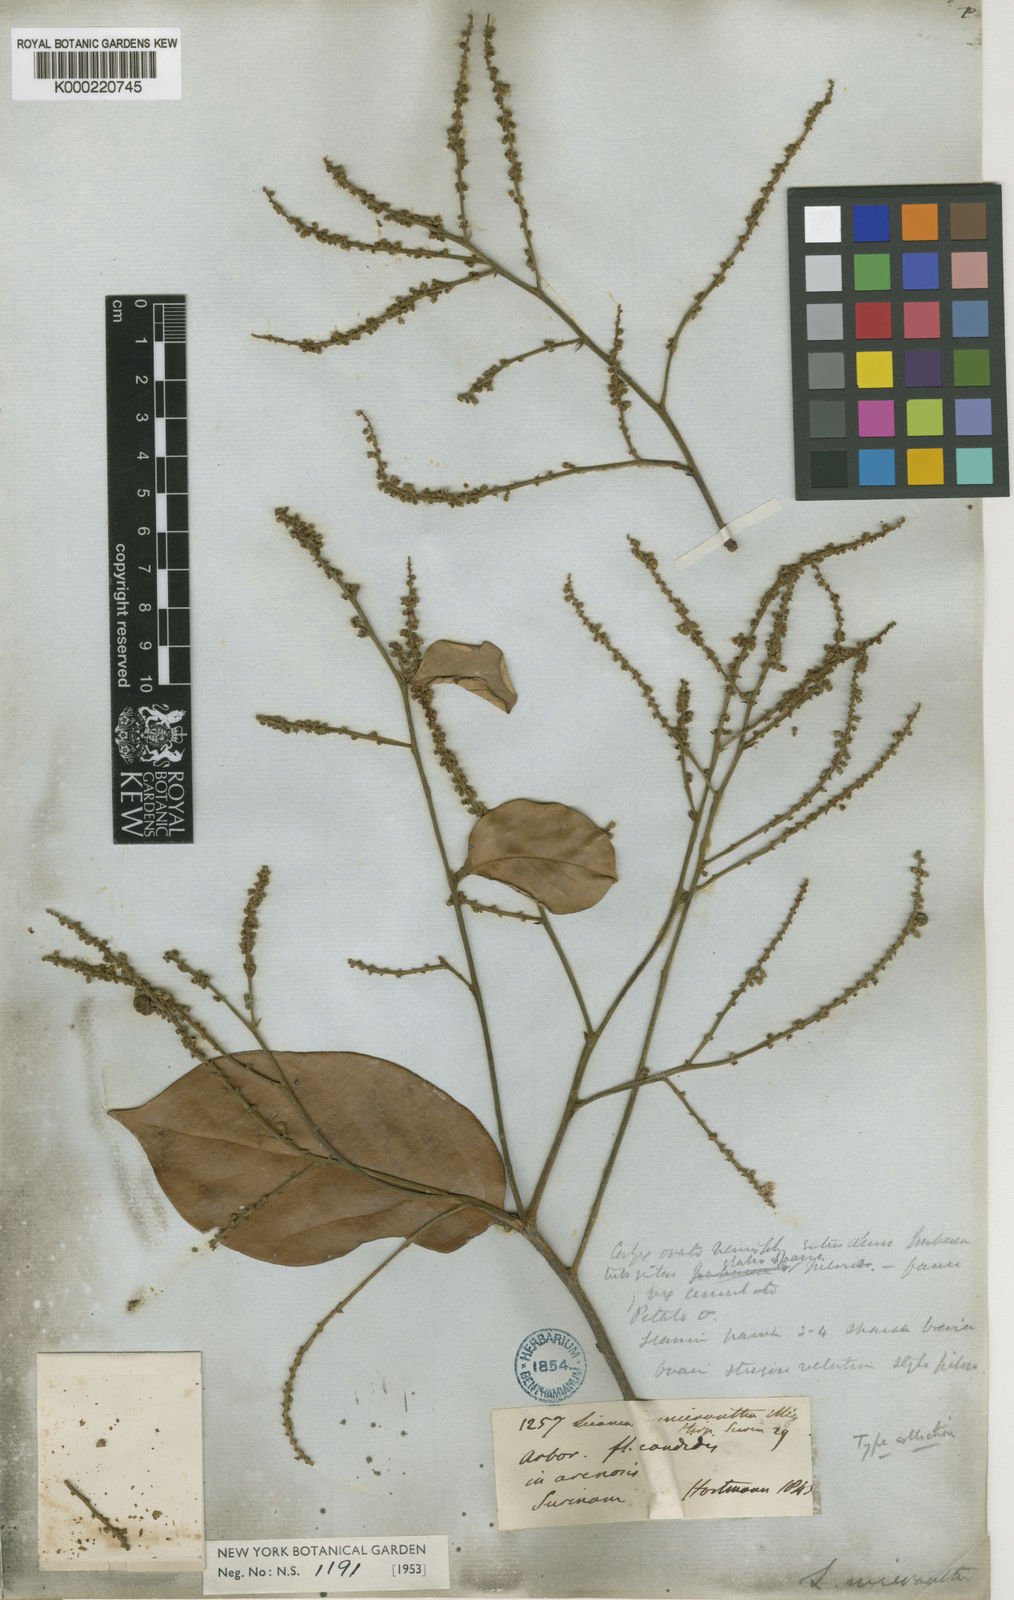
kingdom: Plantae
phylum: Tracheophyta
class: Magnoliopsida
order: Malpighiales
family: Chrysobalanaceae
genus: Licania
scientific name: Licania micrantha
